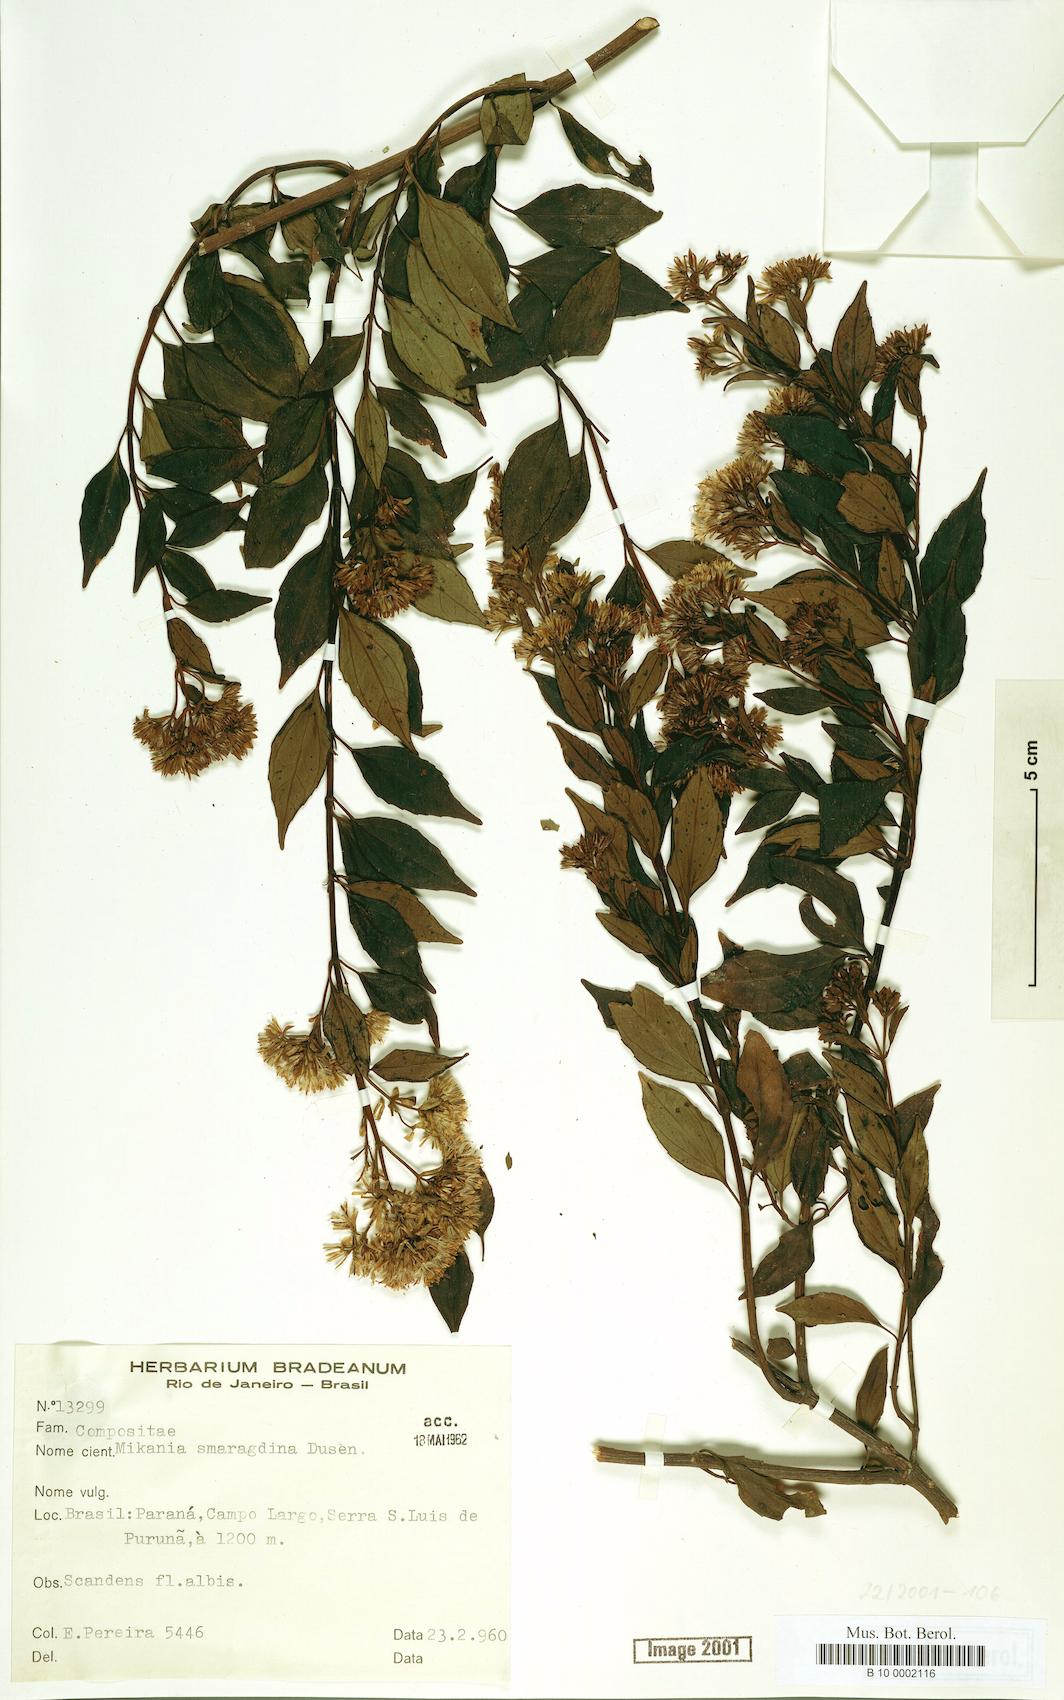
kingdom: Plantae
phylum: Tracheophyta
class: Magnoliopsida
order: Asterales
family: Asteraceae
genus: Mikania
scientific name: Mikania smaragdina
